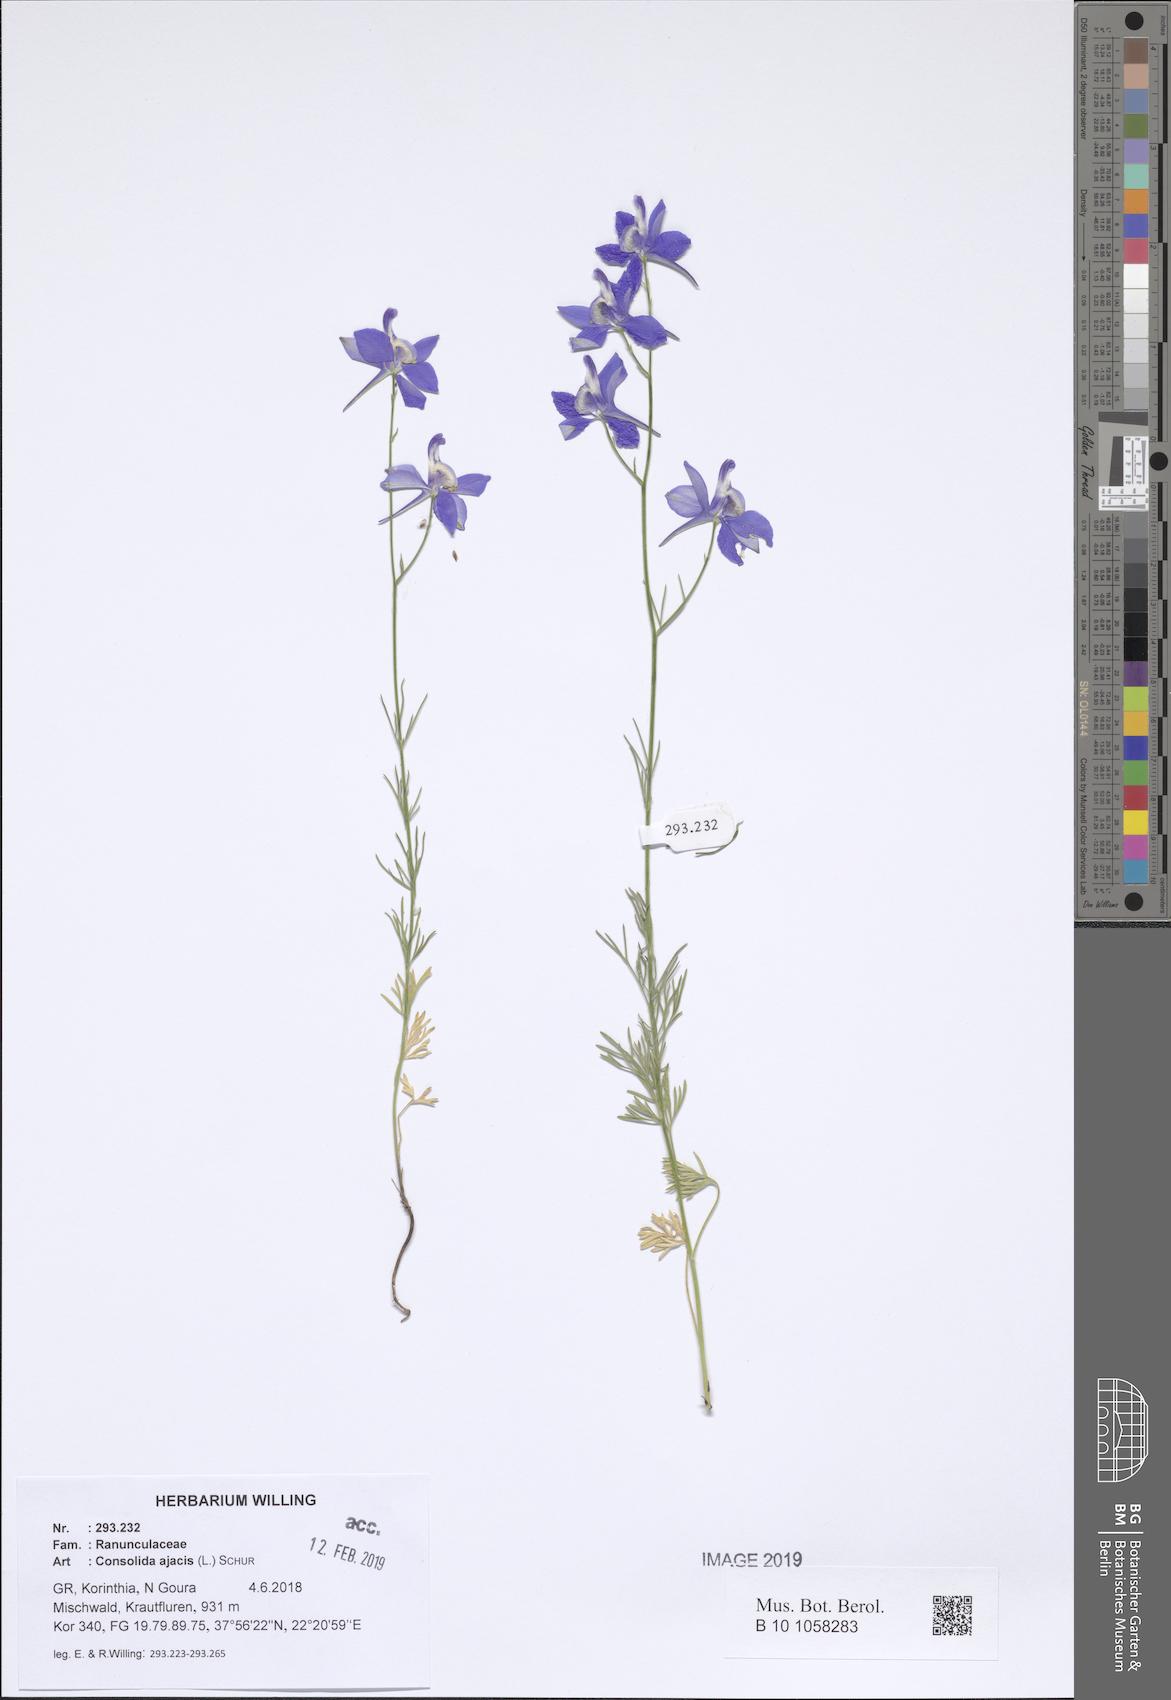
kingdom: Plantae
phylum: Tracheophyta
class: Magnoliopsida
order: Ranunculales
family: Ranunculaceae
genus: Delphinium
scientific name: Delphinium ajacis
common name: Doubtful knight's-spur
